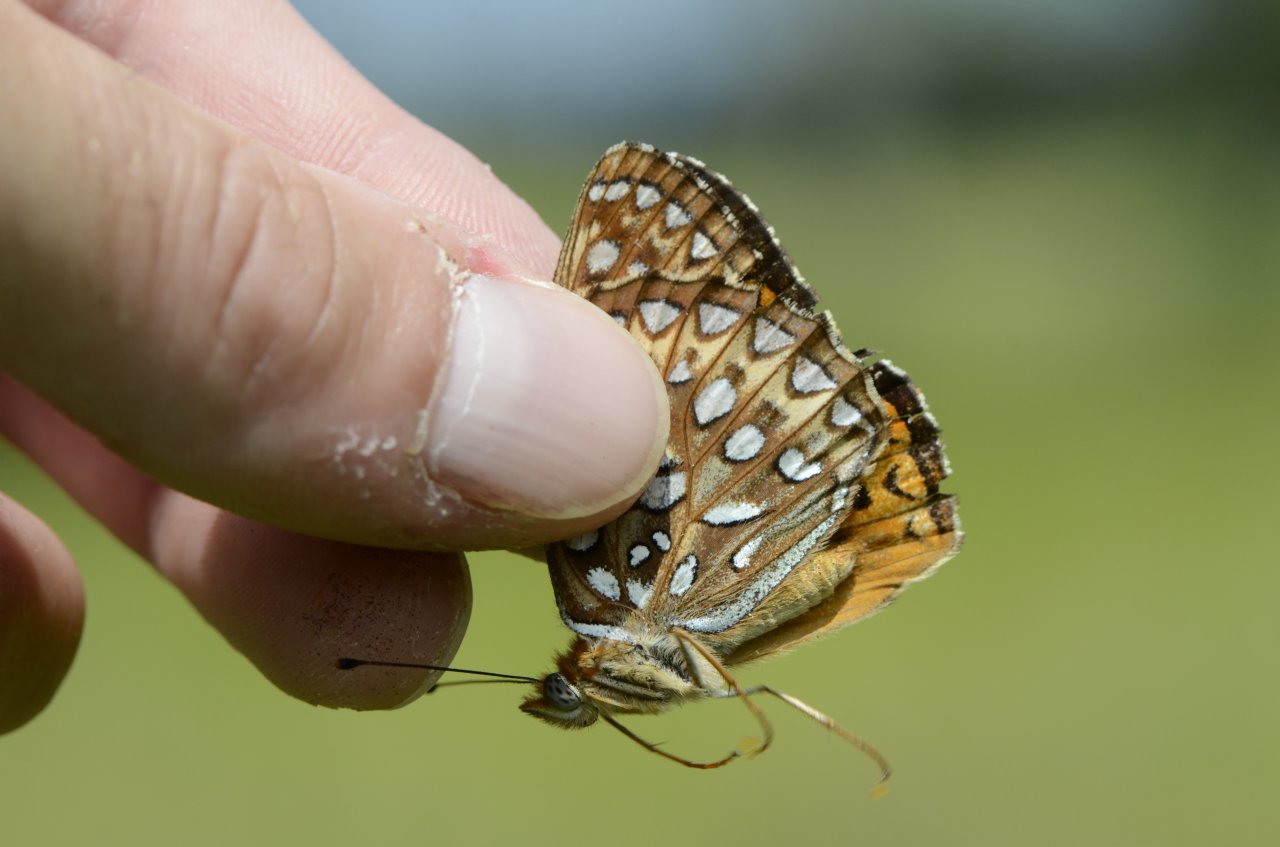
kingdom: Animalia
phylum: Arthropoda
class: Insecta
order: Lepidoptera
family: Nymphalidae
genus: Speyeria
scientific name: Speyeria atlantis
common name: Atlantis Fritillary
